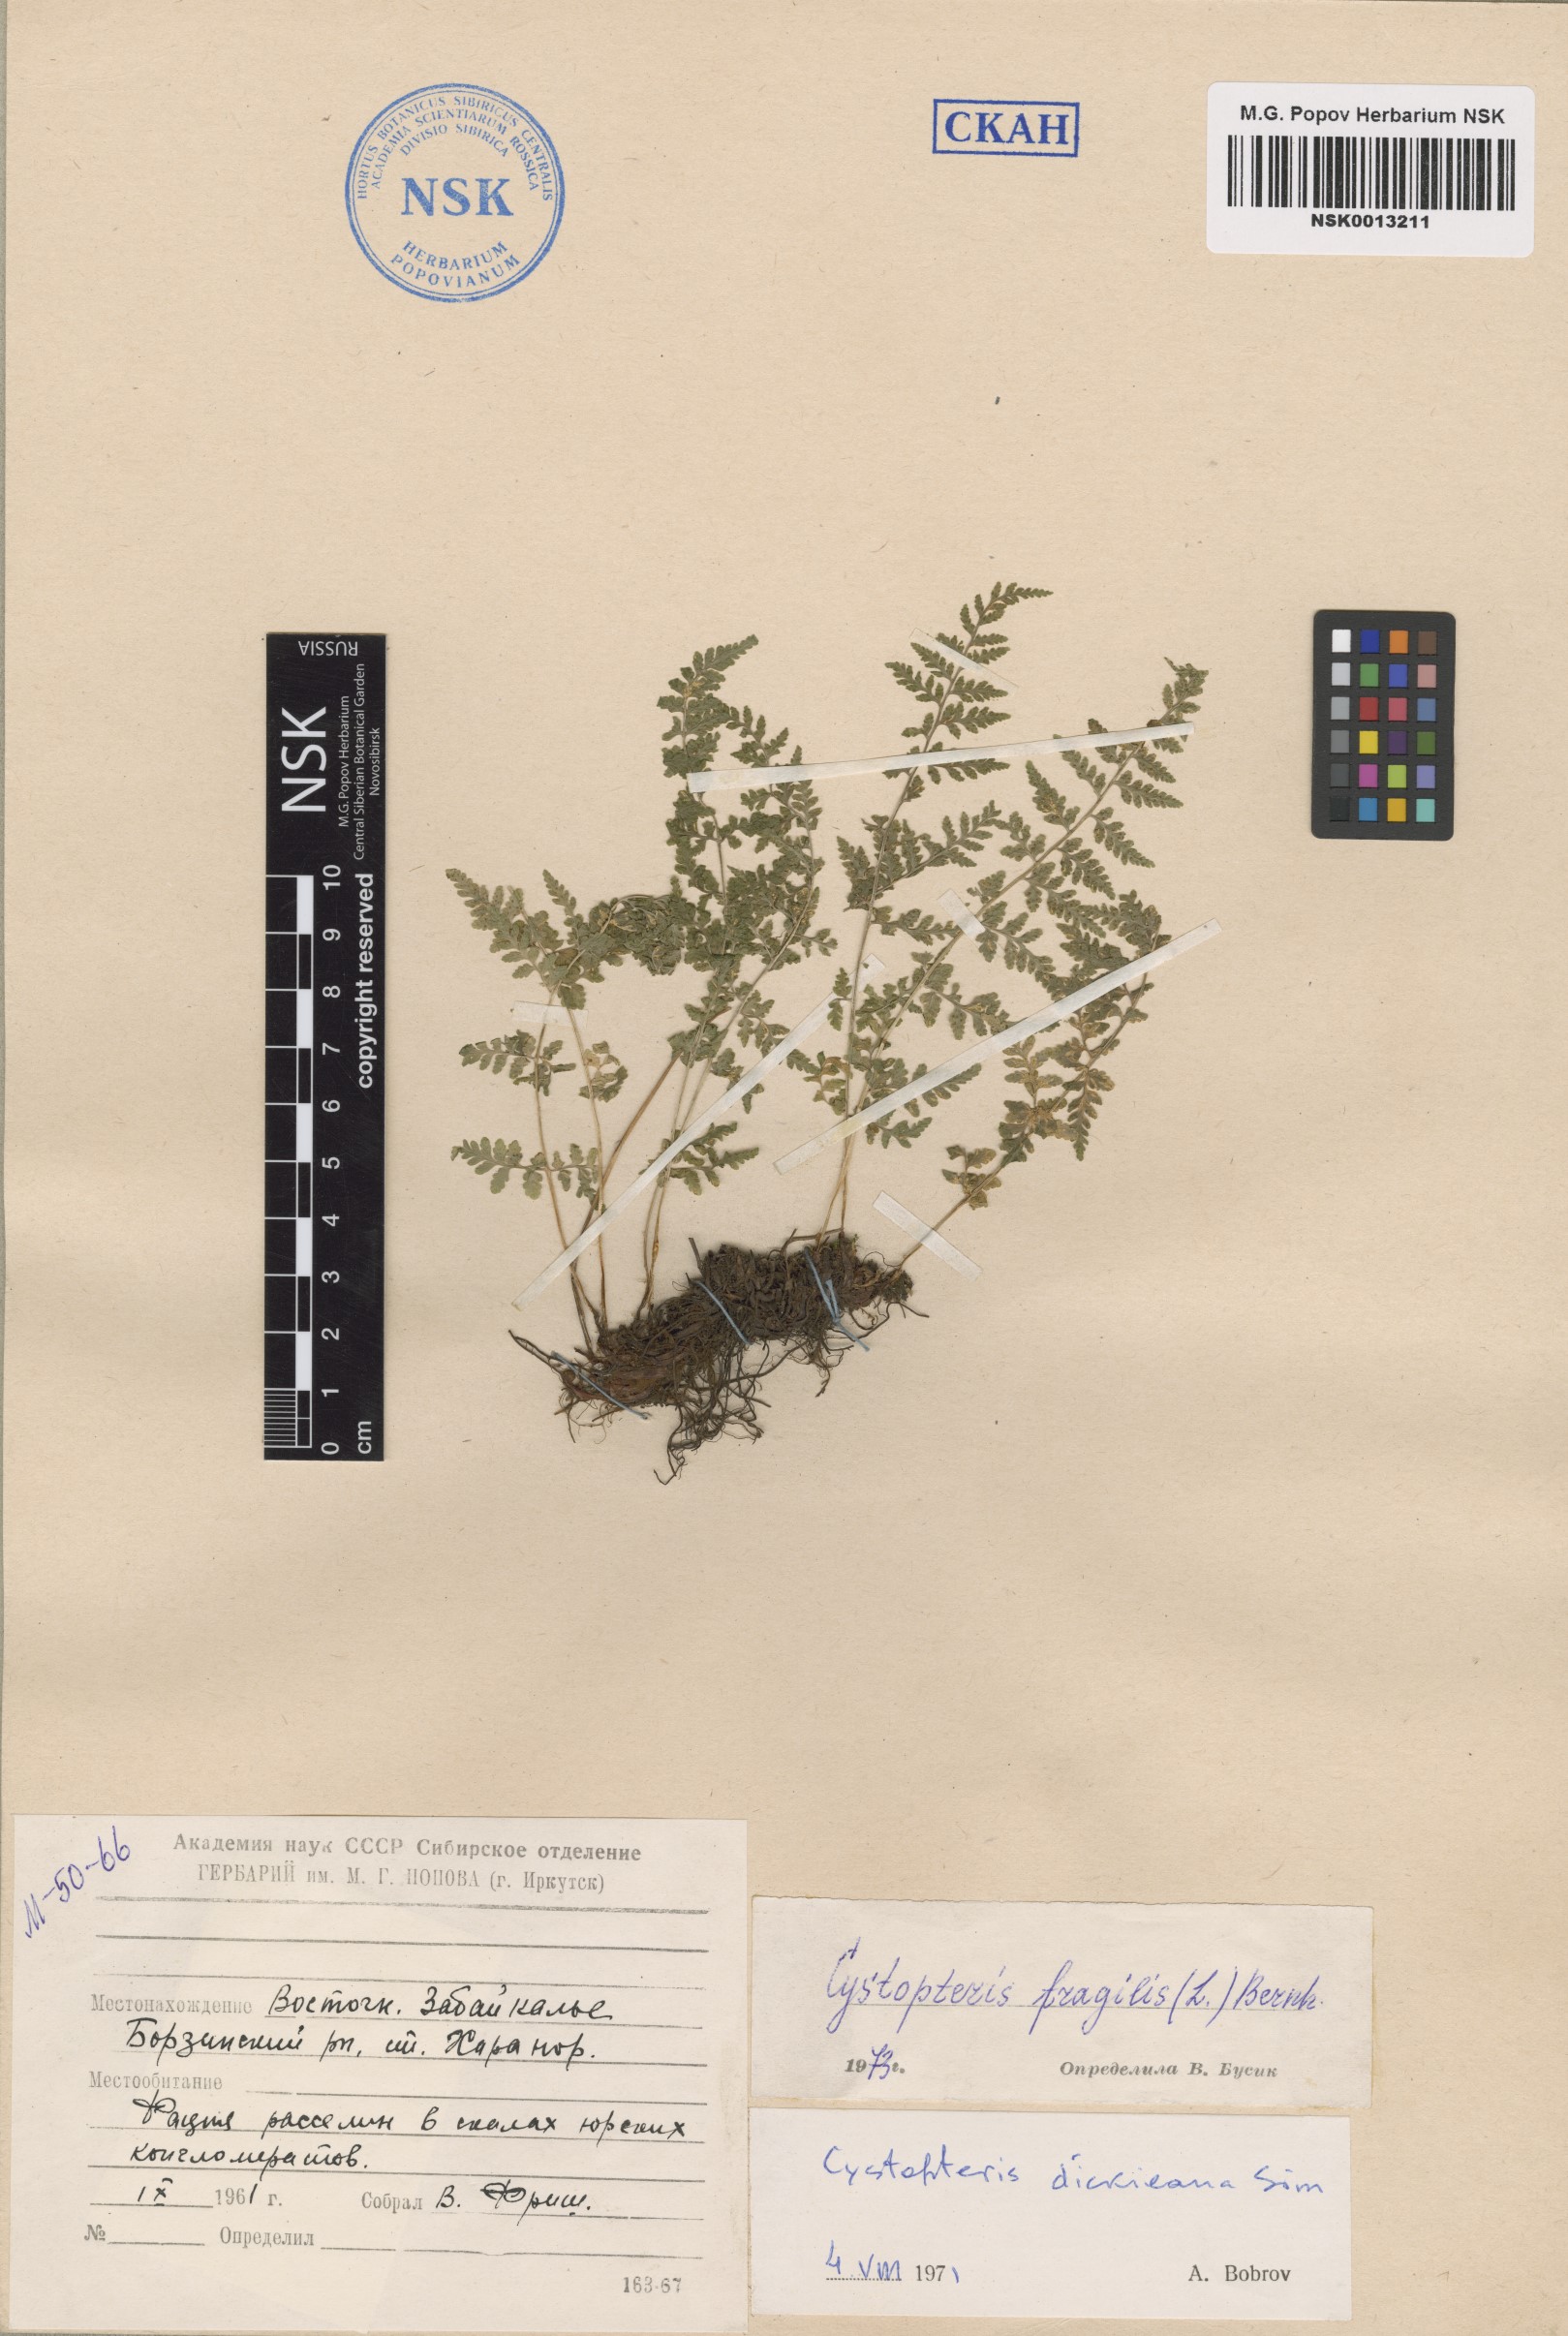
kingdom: Plantae
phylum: Tracheophyta
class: Polypodiopsida
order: Polypodiales
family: Cystopteridaceae
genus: Cystopteris
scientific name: Cystopteris fragilis
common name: Brittle bladder fern
